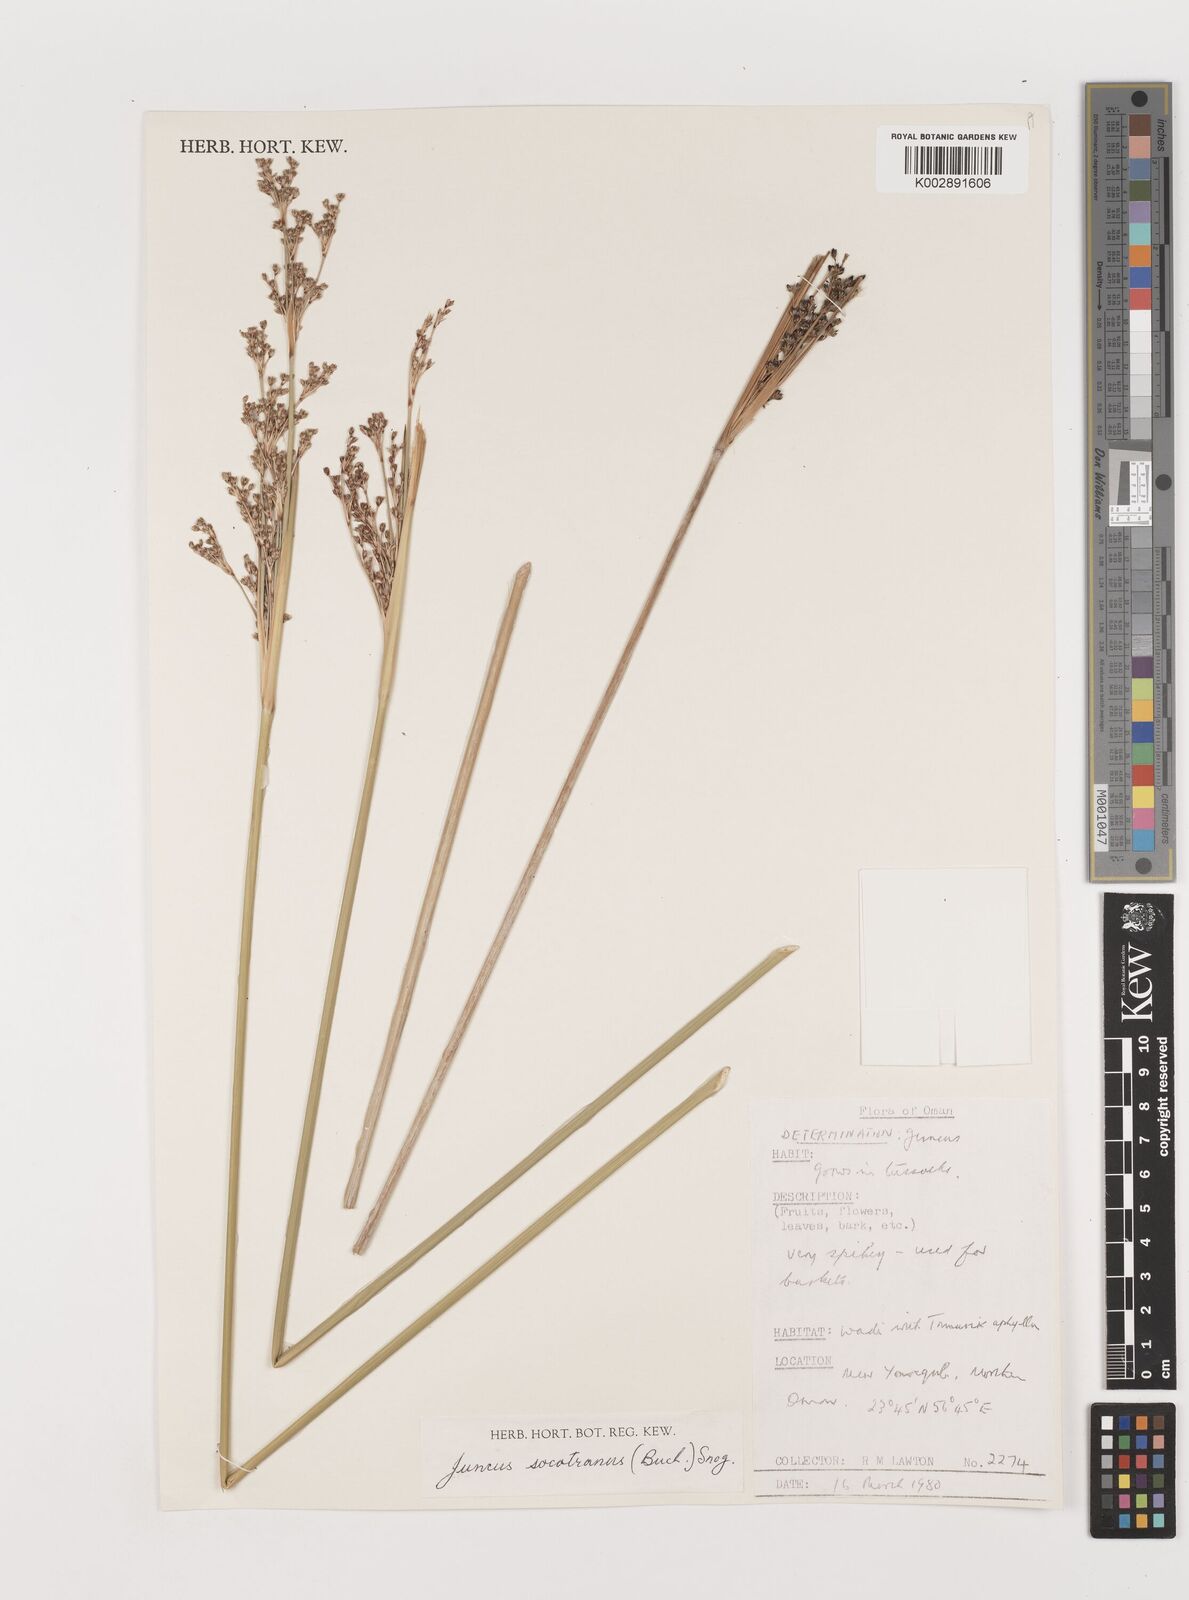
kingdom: Plantae
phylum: Tracheophyta
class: Liliopsida
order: Poales
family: Juncaceae
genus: Juncus
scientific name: Juncus socotranus
